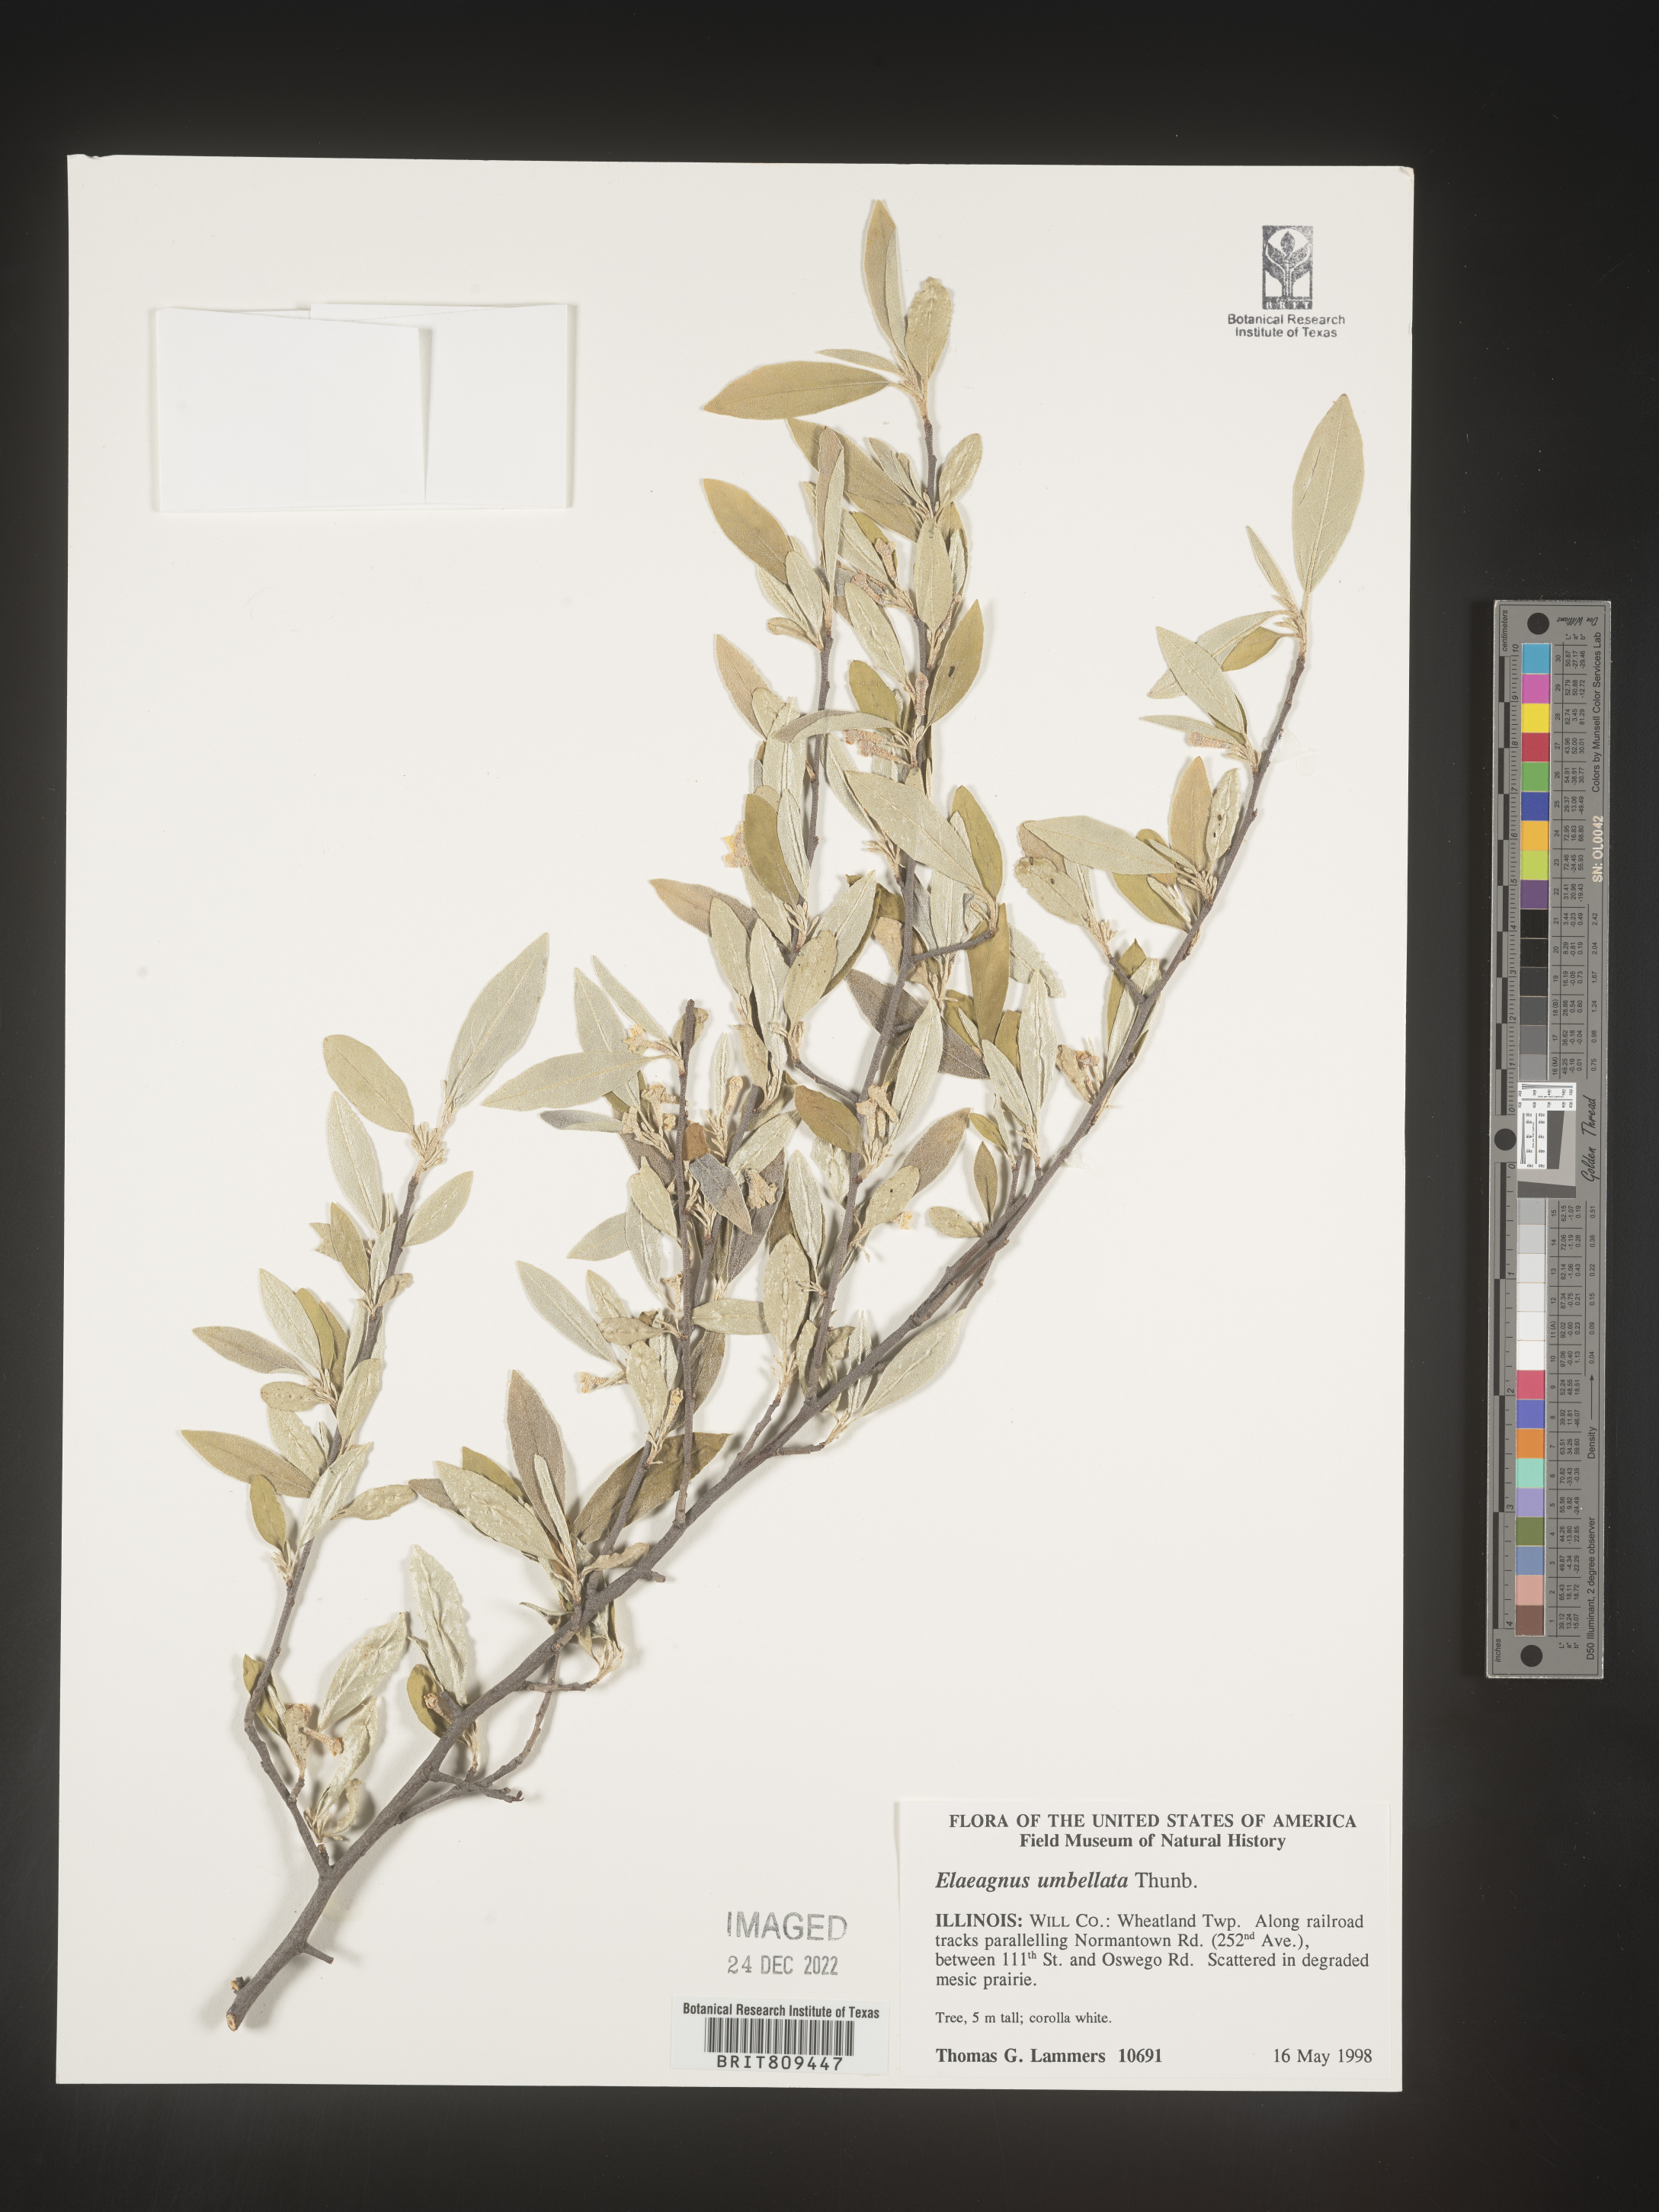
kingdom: Plantae
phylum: Tracheophyta
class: Magnoliopsida
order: Rosales
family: Elaeagnaceae
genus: Elaeagnus
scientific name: Elaeagnus
